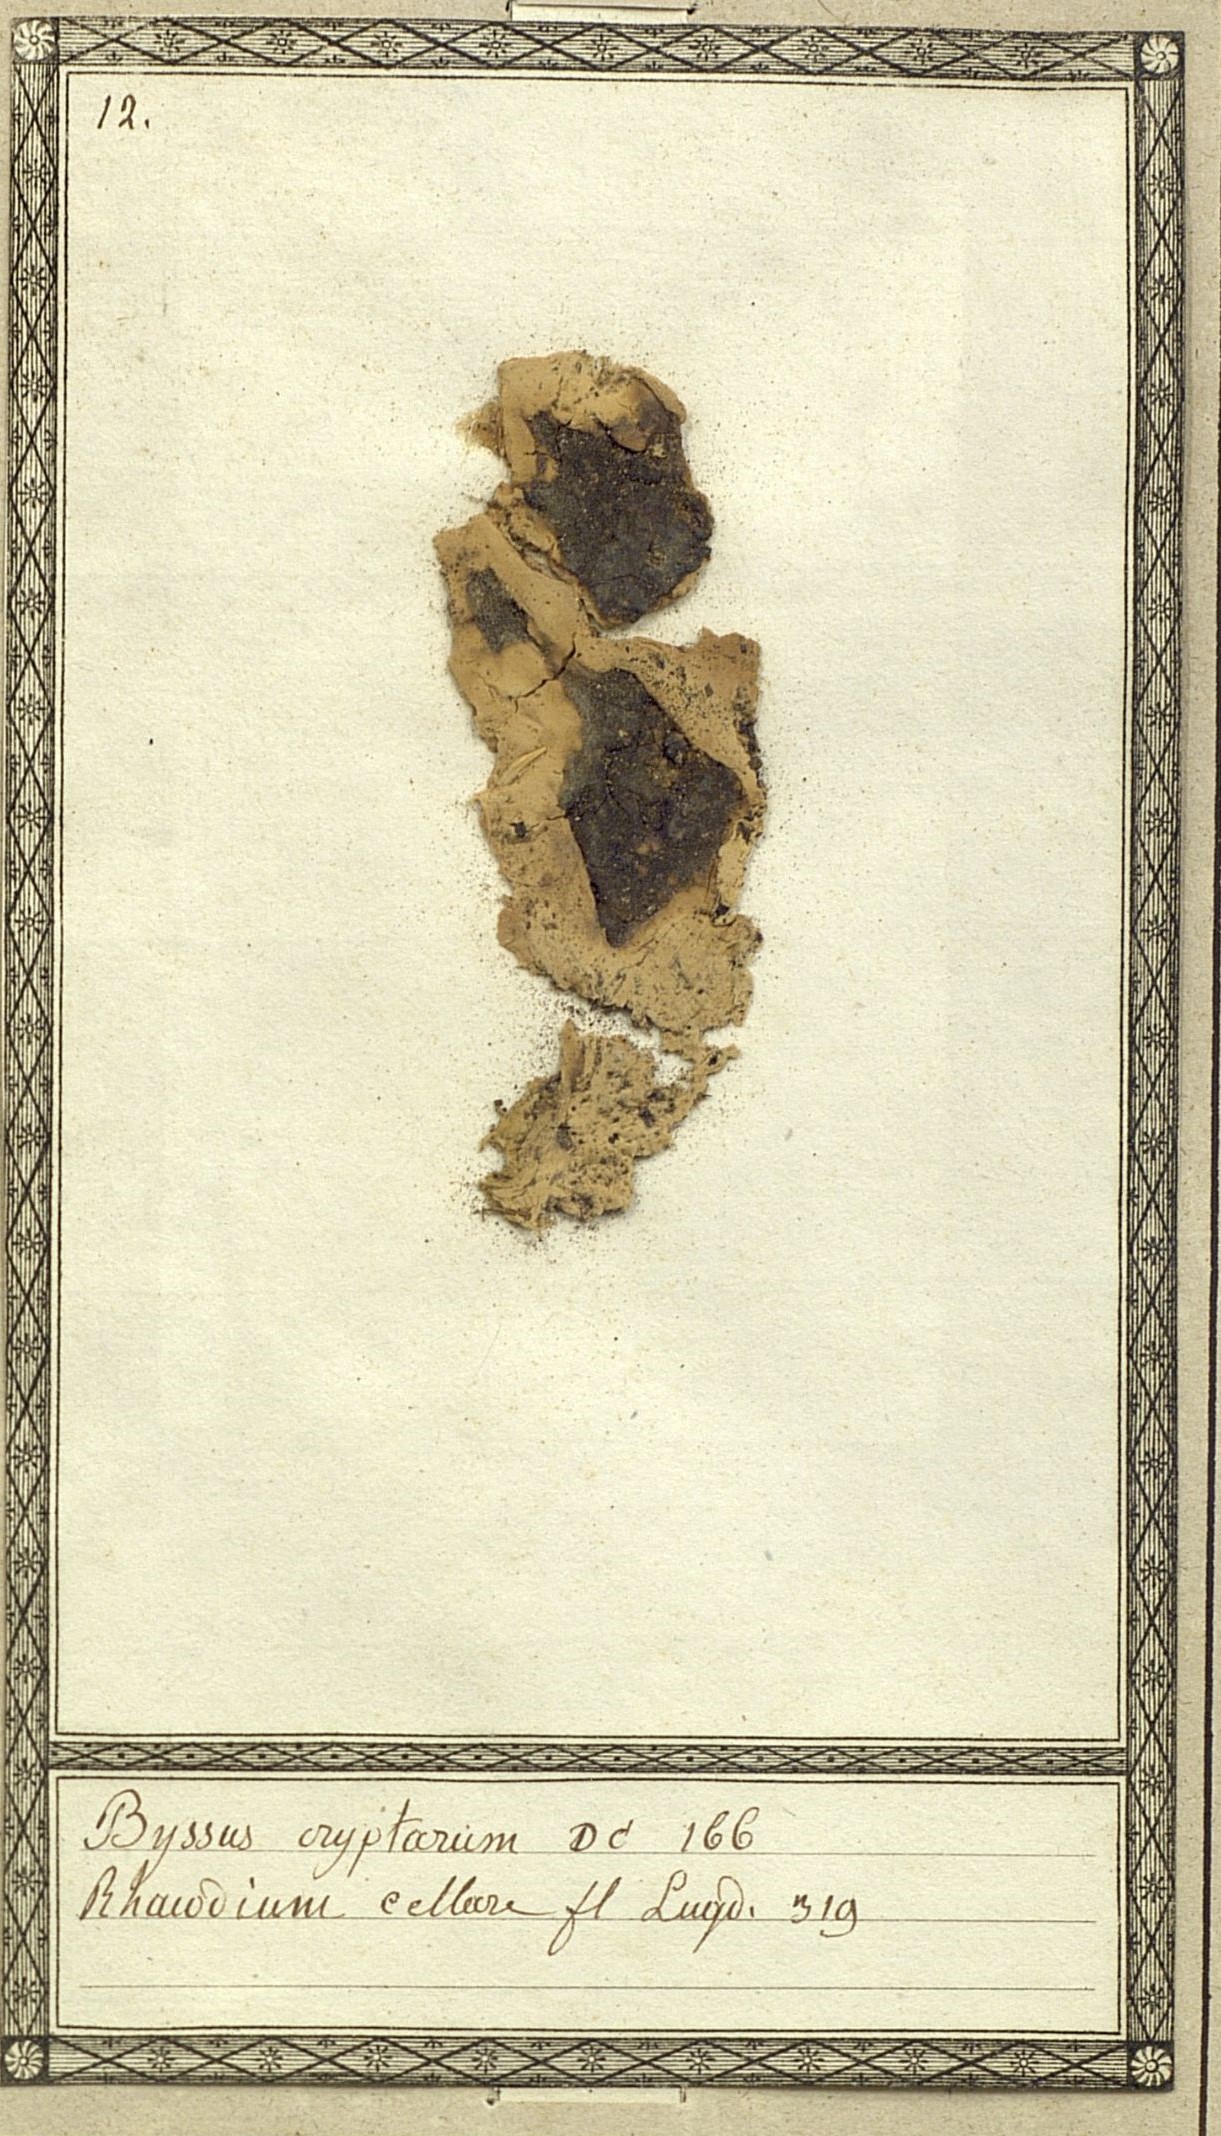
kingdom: Fungi
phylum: Ascomycota
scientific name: Ascomycota
